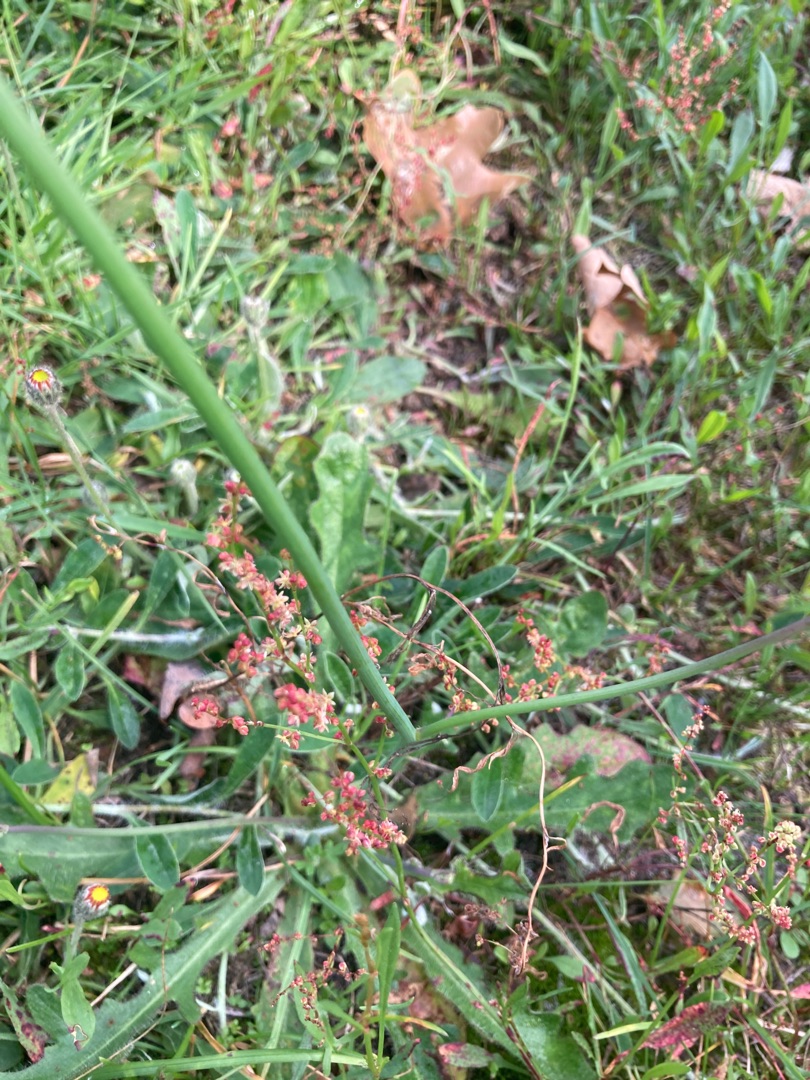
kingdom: Plantae
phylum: Tracheophyta
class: Magnoliopsida
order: Caryophyllales
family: Polygonaceae
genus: Rumex
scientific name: Rumex acetosella
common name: Rødknæ
